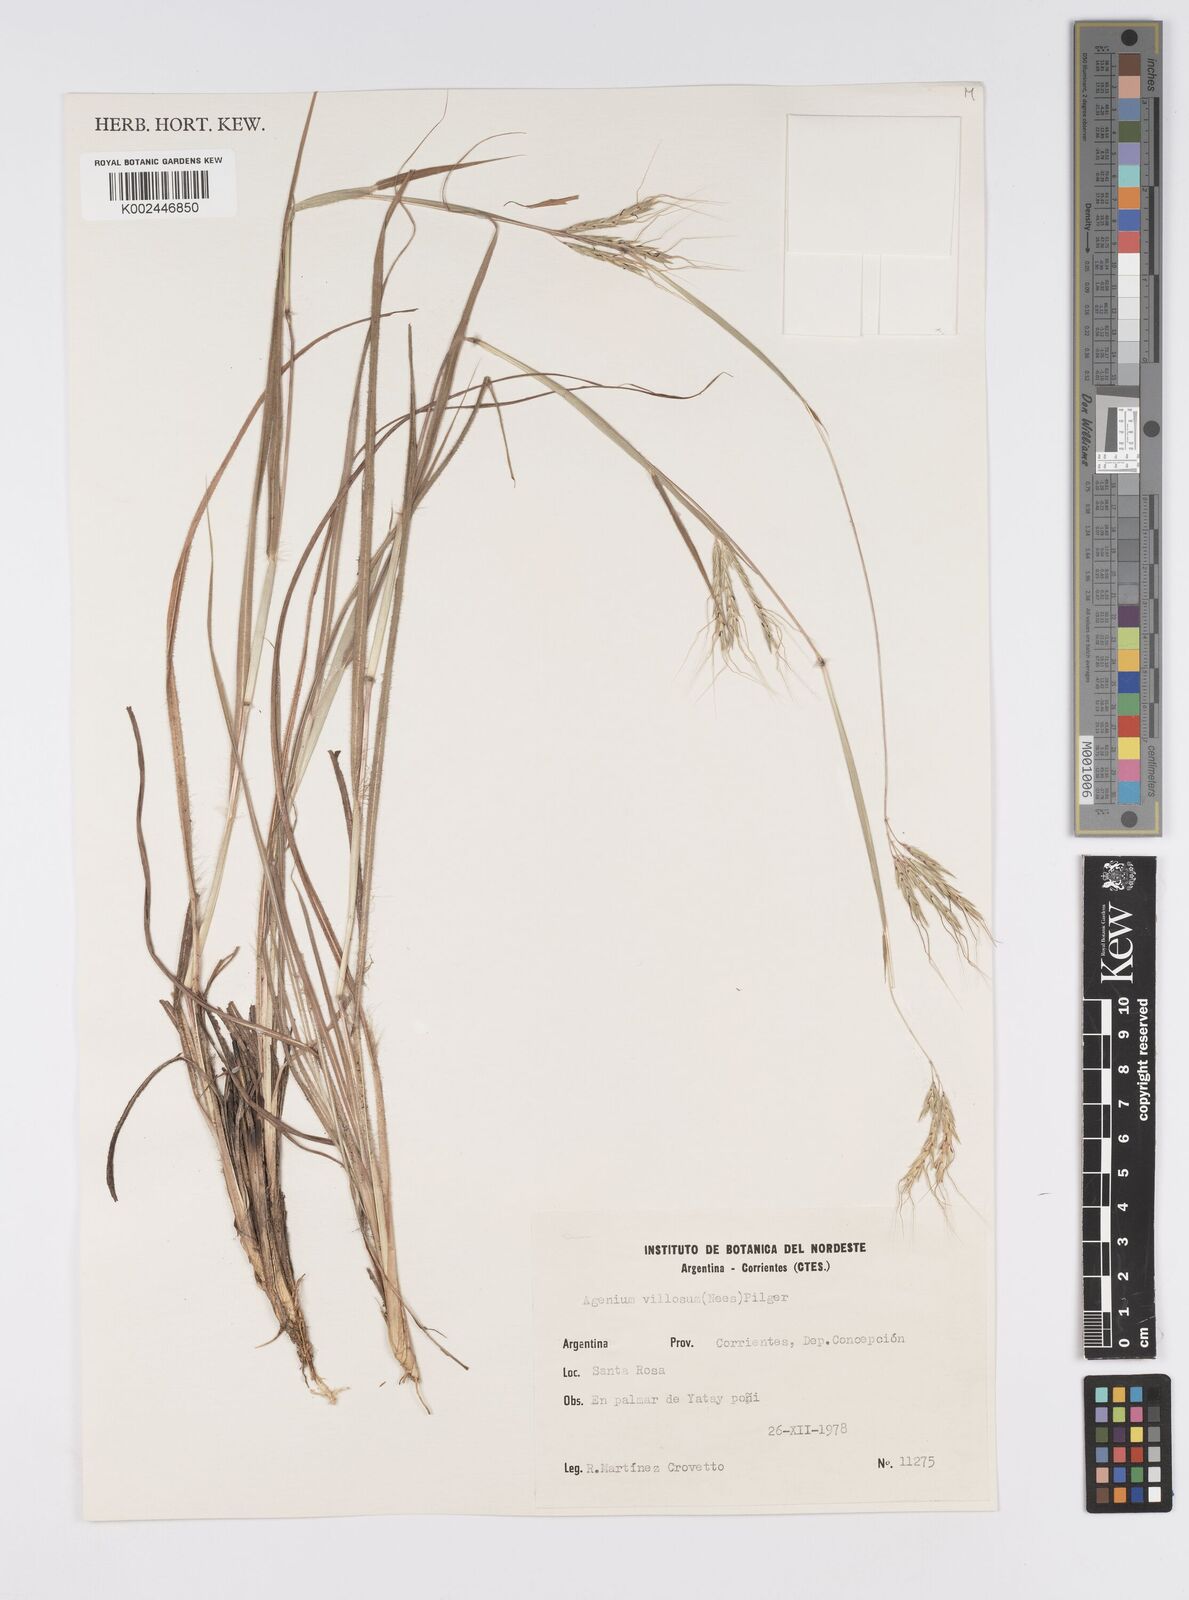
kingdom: Plantae
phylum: Tracheophyta
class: Liliopsida
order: Poales
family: Poaceae
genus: Agenium
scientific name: Agenium villosum
